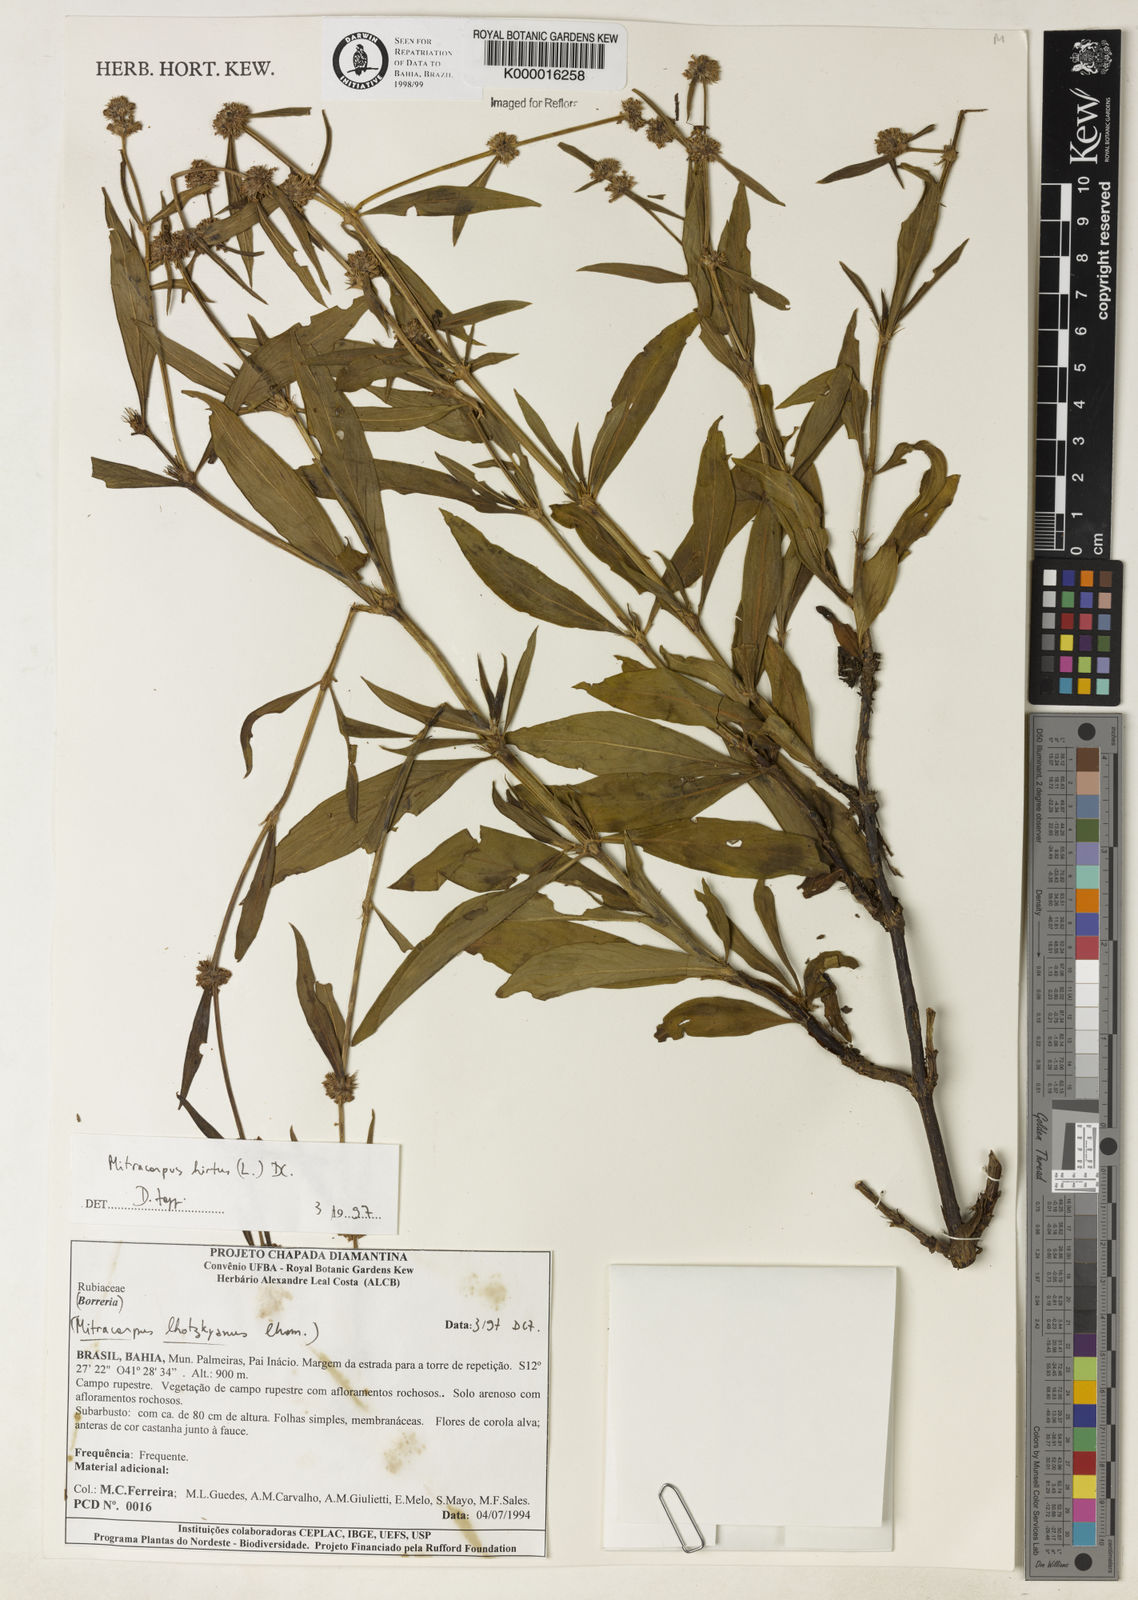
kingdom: Plantae
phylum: Tracheophyta
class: Magnoliopsida
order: Gentianales
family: Rubiaceae
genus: Mitracarpus
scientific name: Mitracarpus
